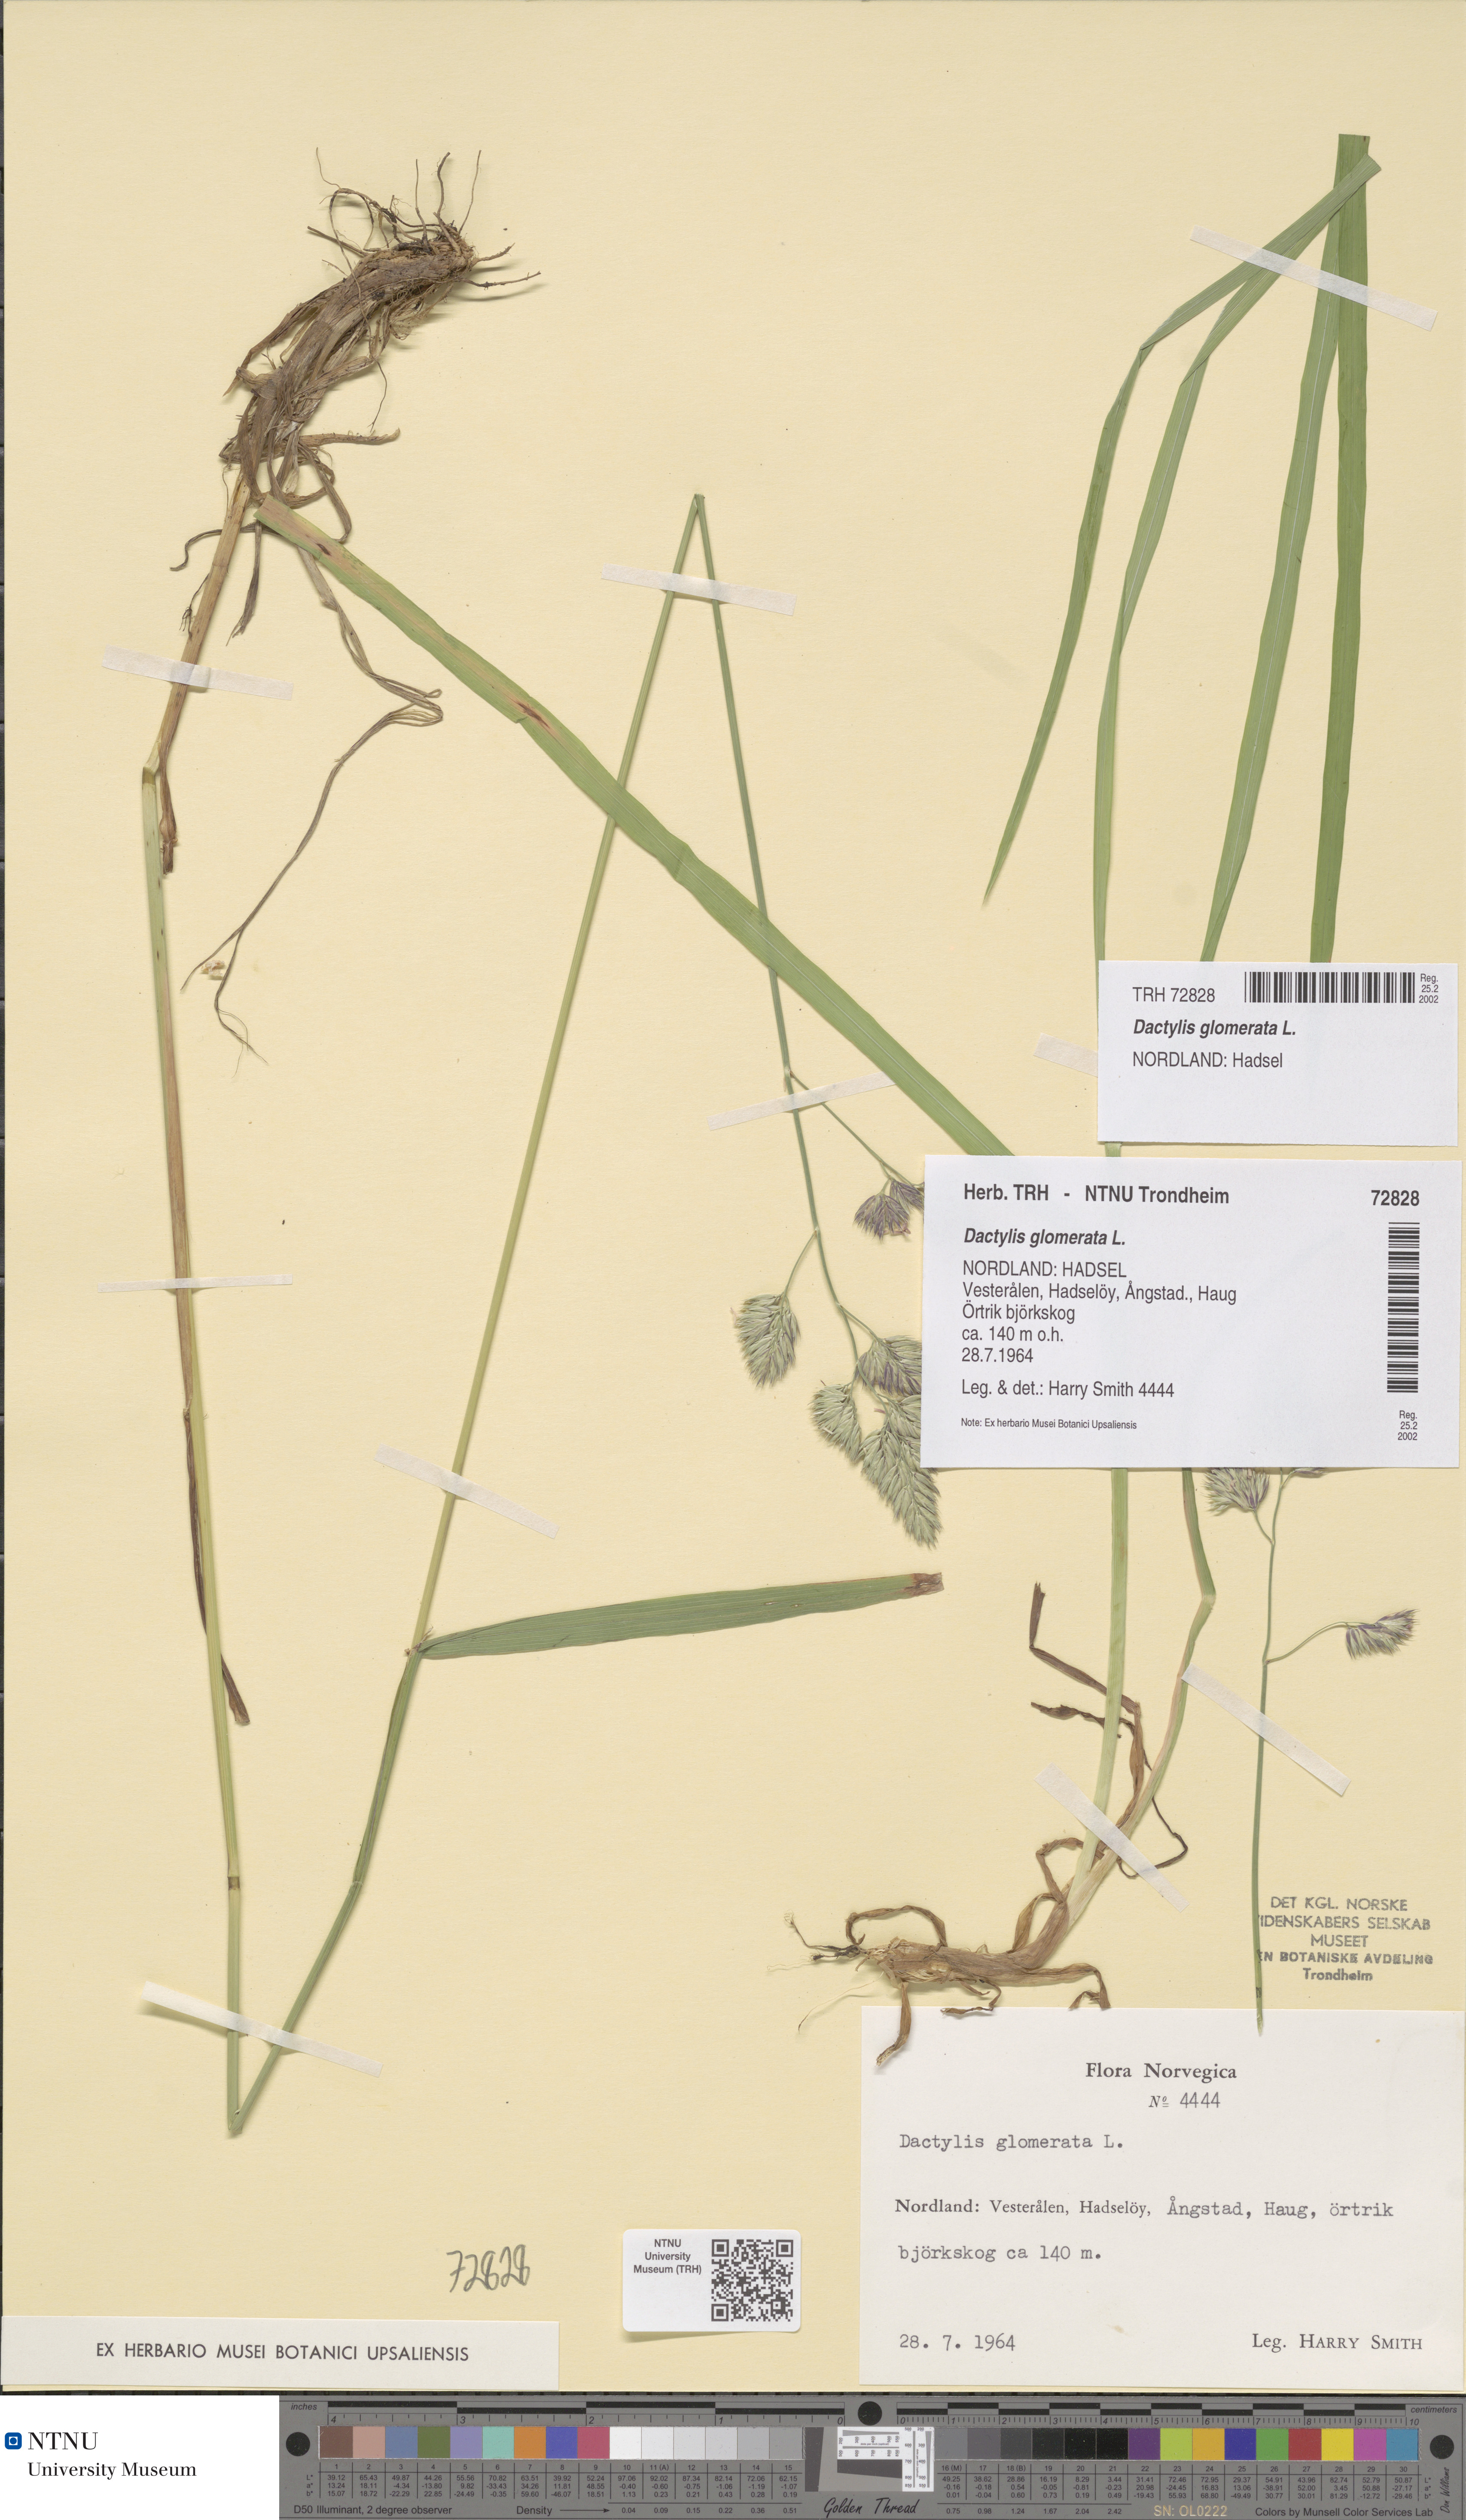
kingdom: Plantae
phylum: Tracheophyta
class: Liliopsida
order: Poales
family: Poaceae
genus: Dactylis
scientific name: Dactylis glomerata
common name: Orchardgrass
